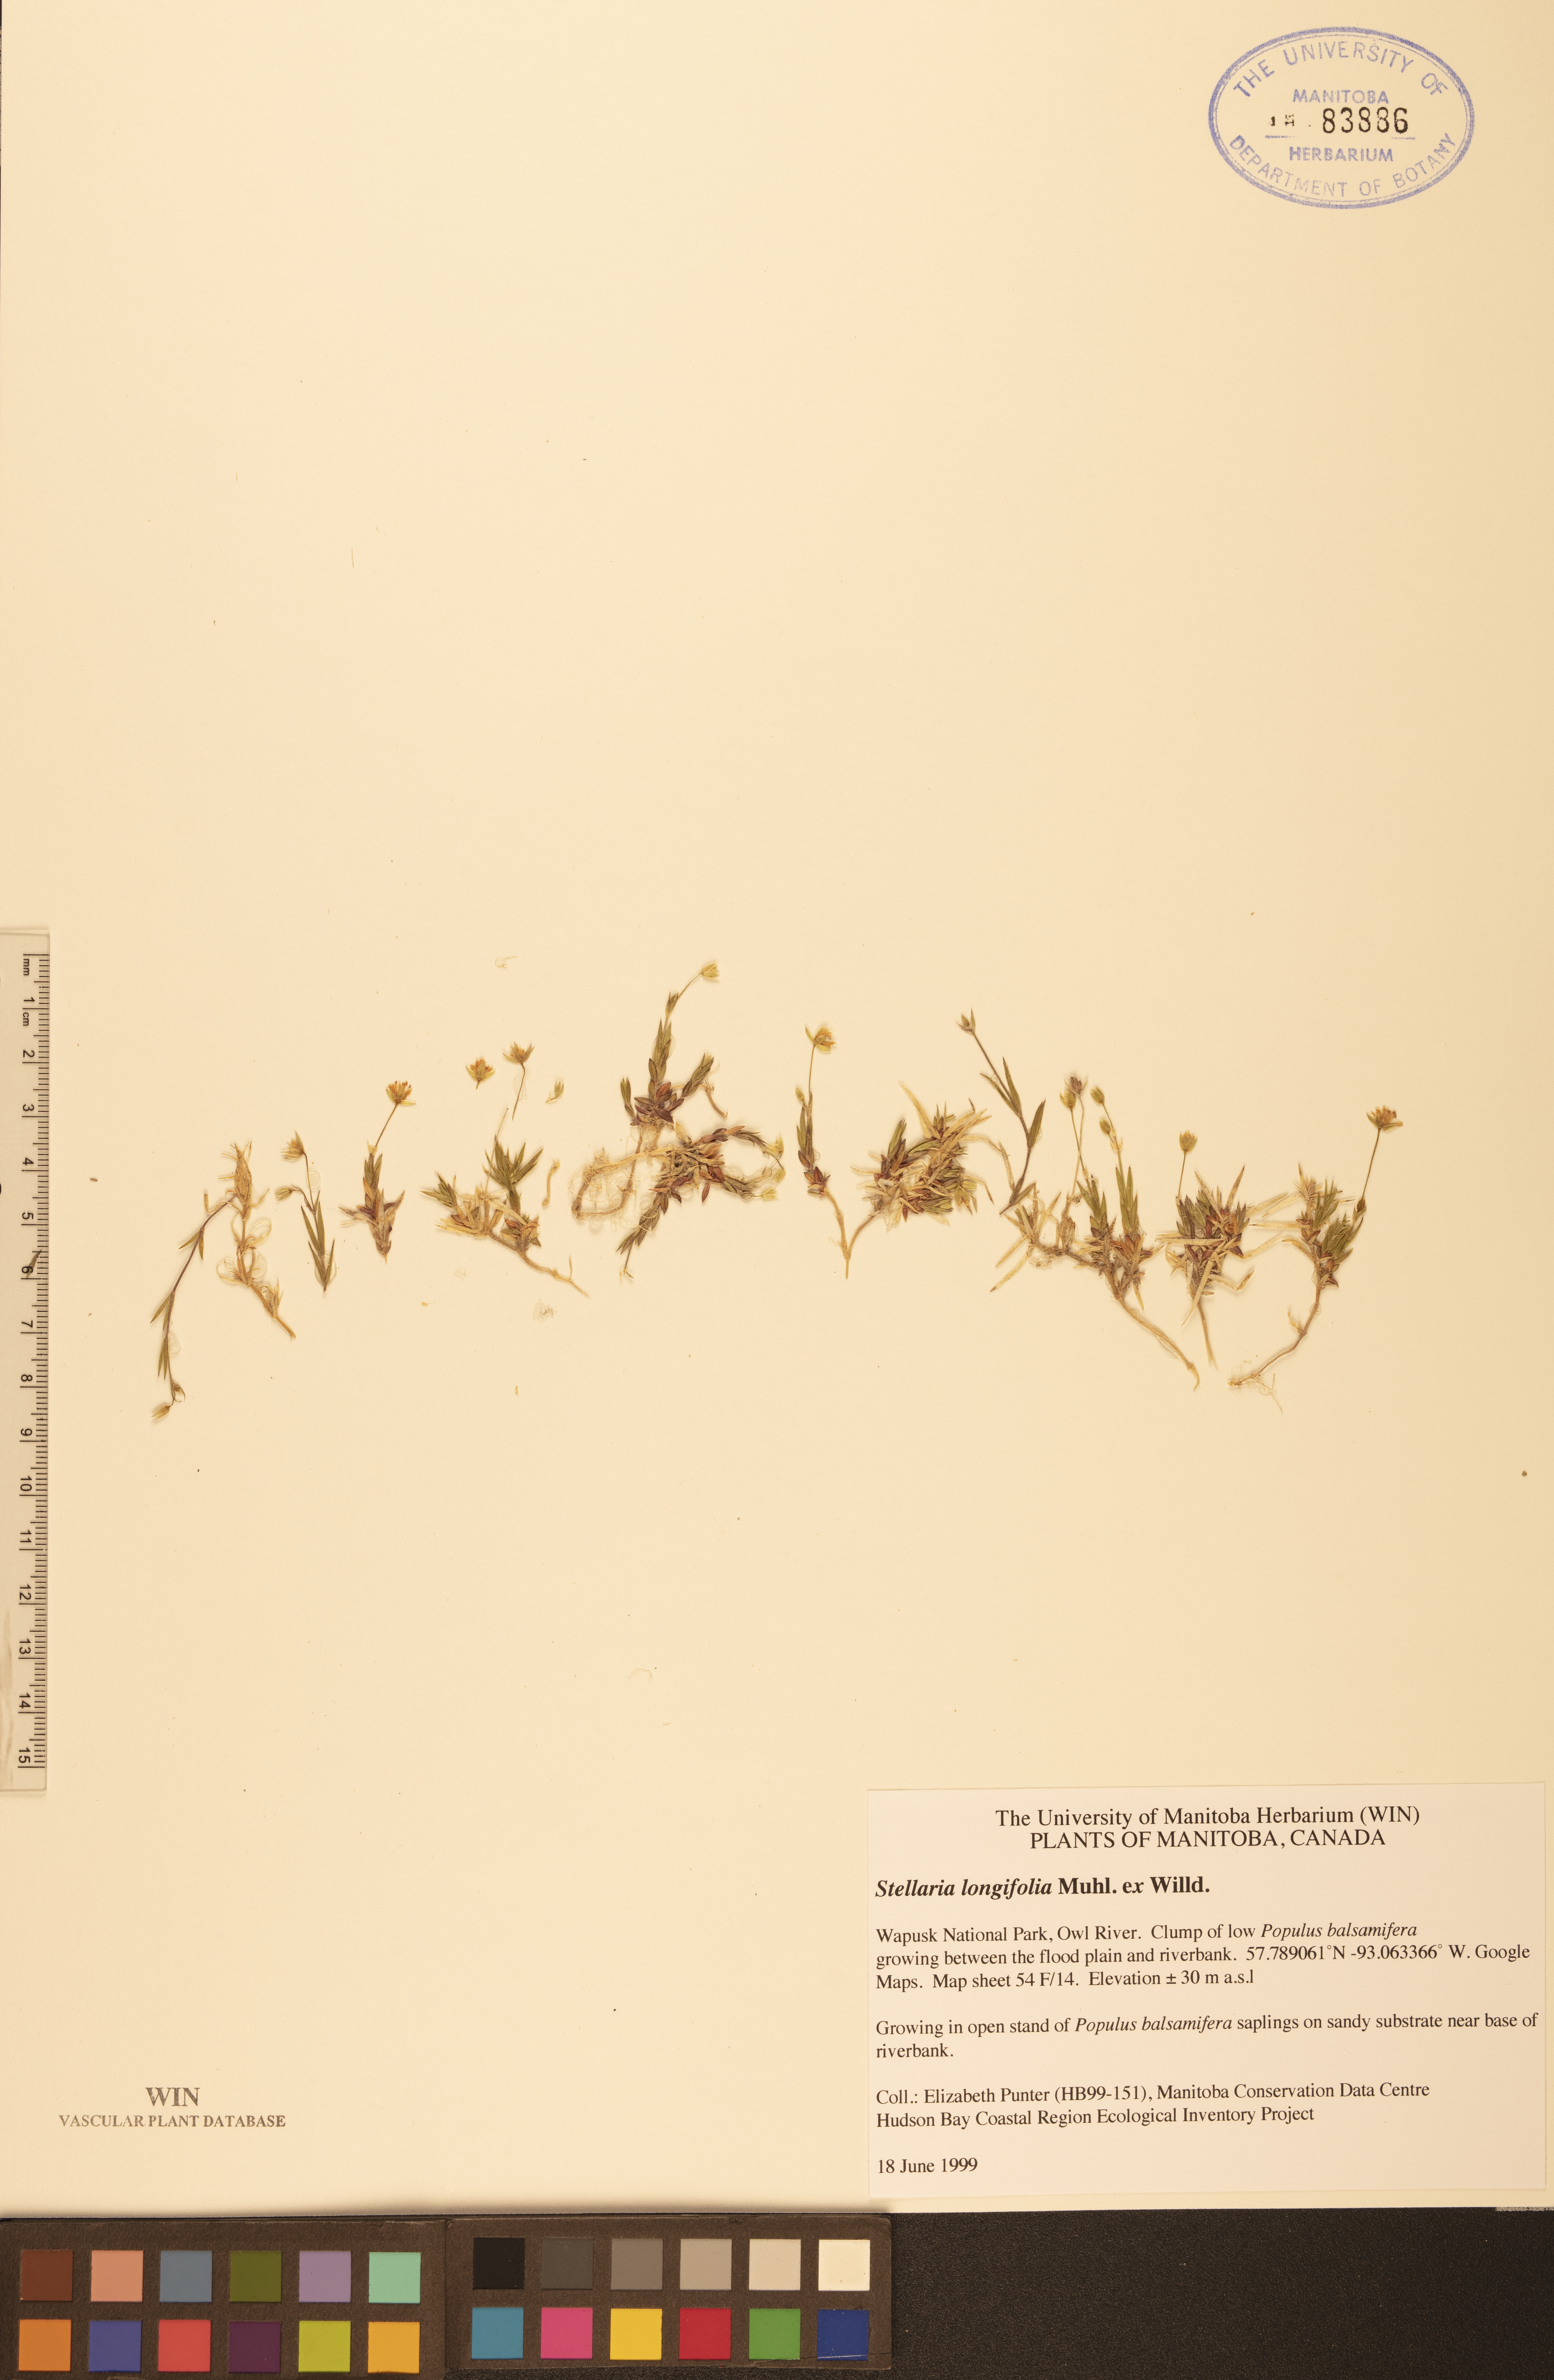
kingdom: Plantae
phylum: Tracheophyta
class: Magnoliopsida
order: Caryophyllales
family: Caryophyllaceae
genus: Stellaria
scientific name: Stellaria longifolia
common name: Long-leaved chickweed
